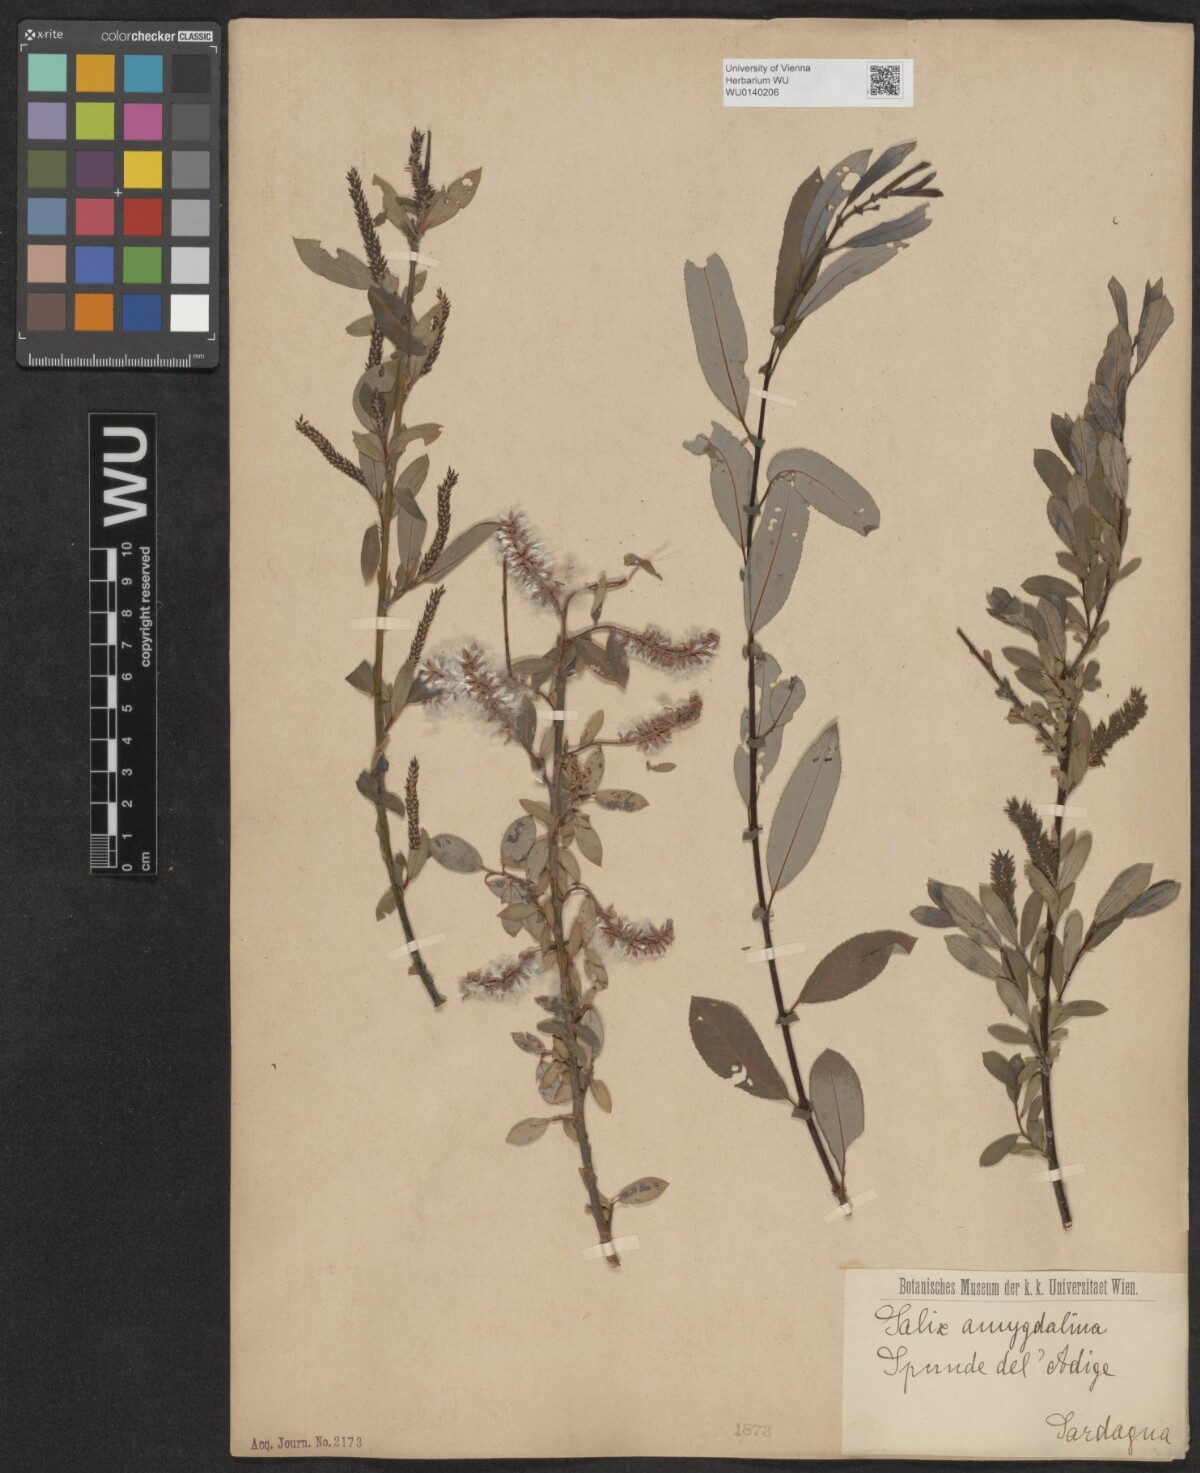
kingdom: Plantae
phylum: Tracheophyta
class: Magnoliopsida
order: Malpighiales
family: Salicaceae
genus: Salix
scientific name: Salix triandra
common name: Almond willow
